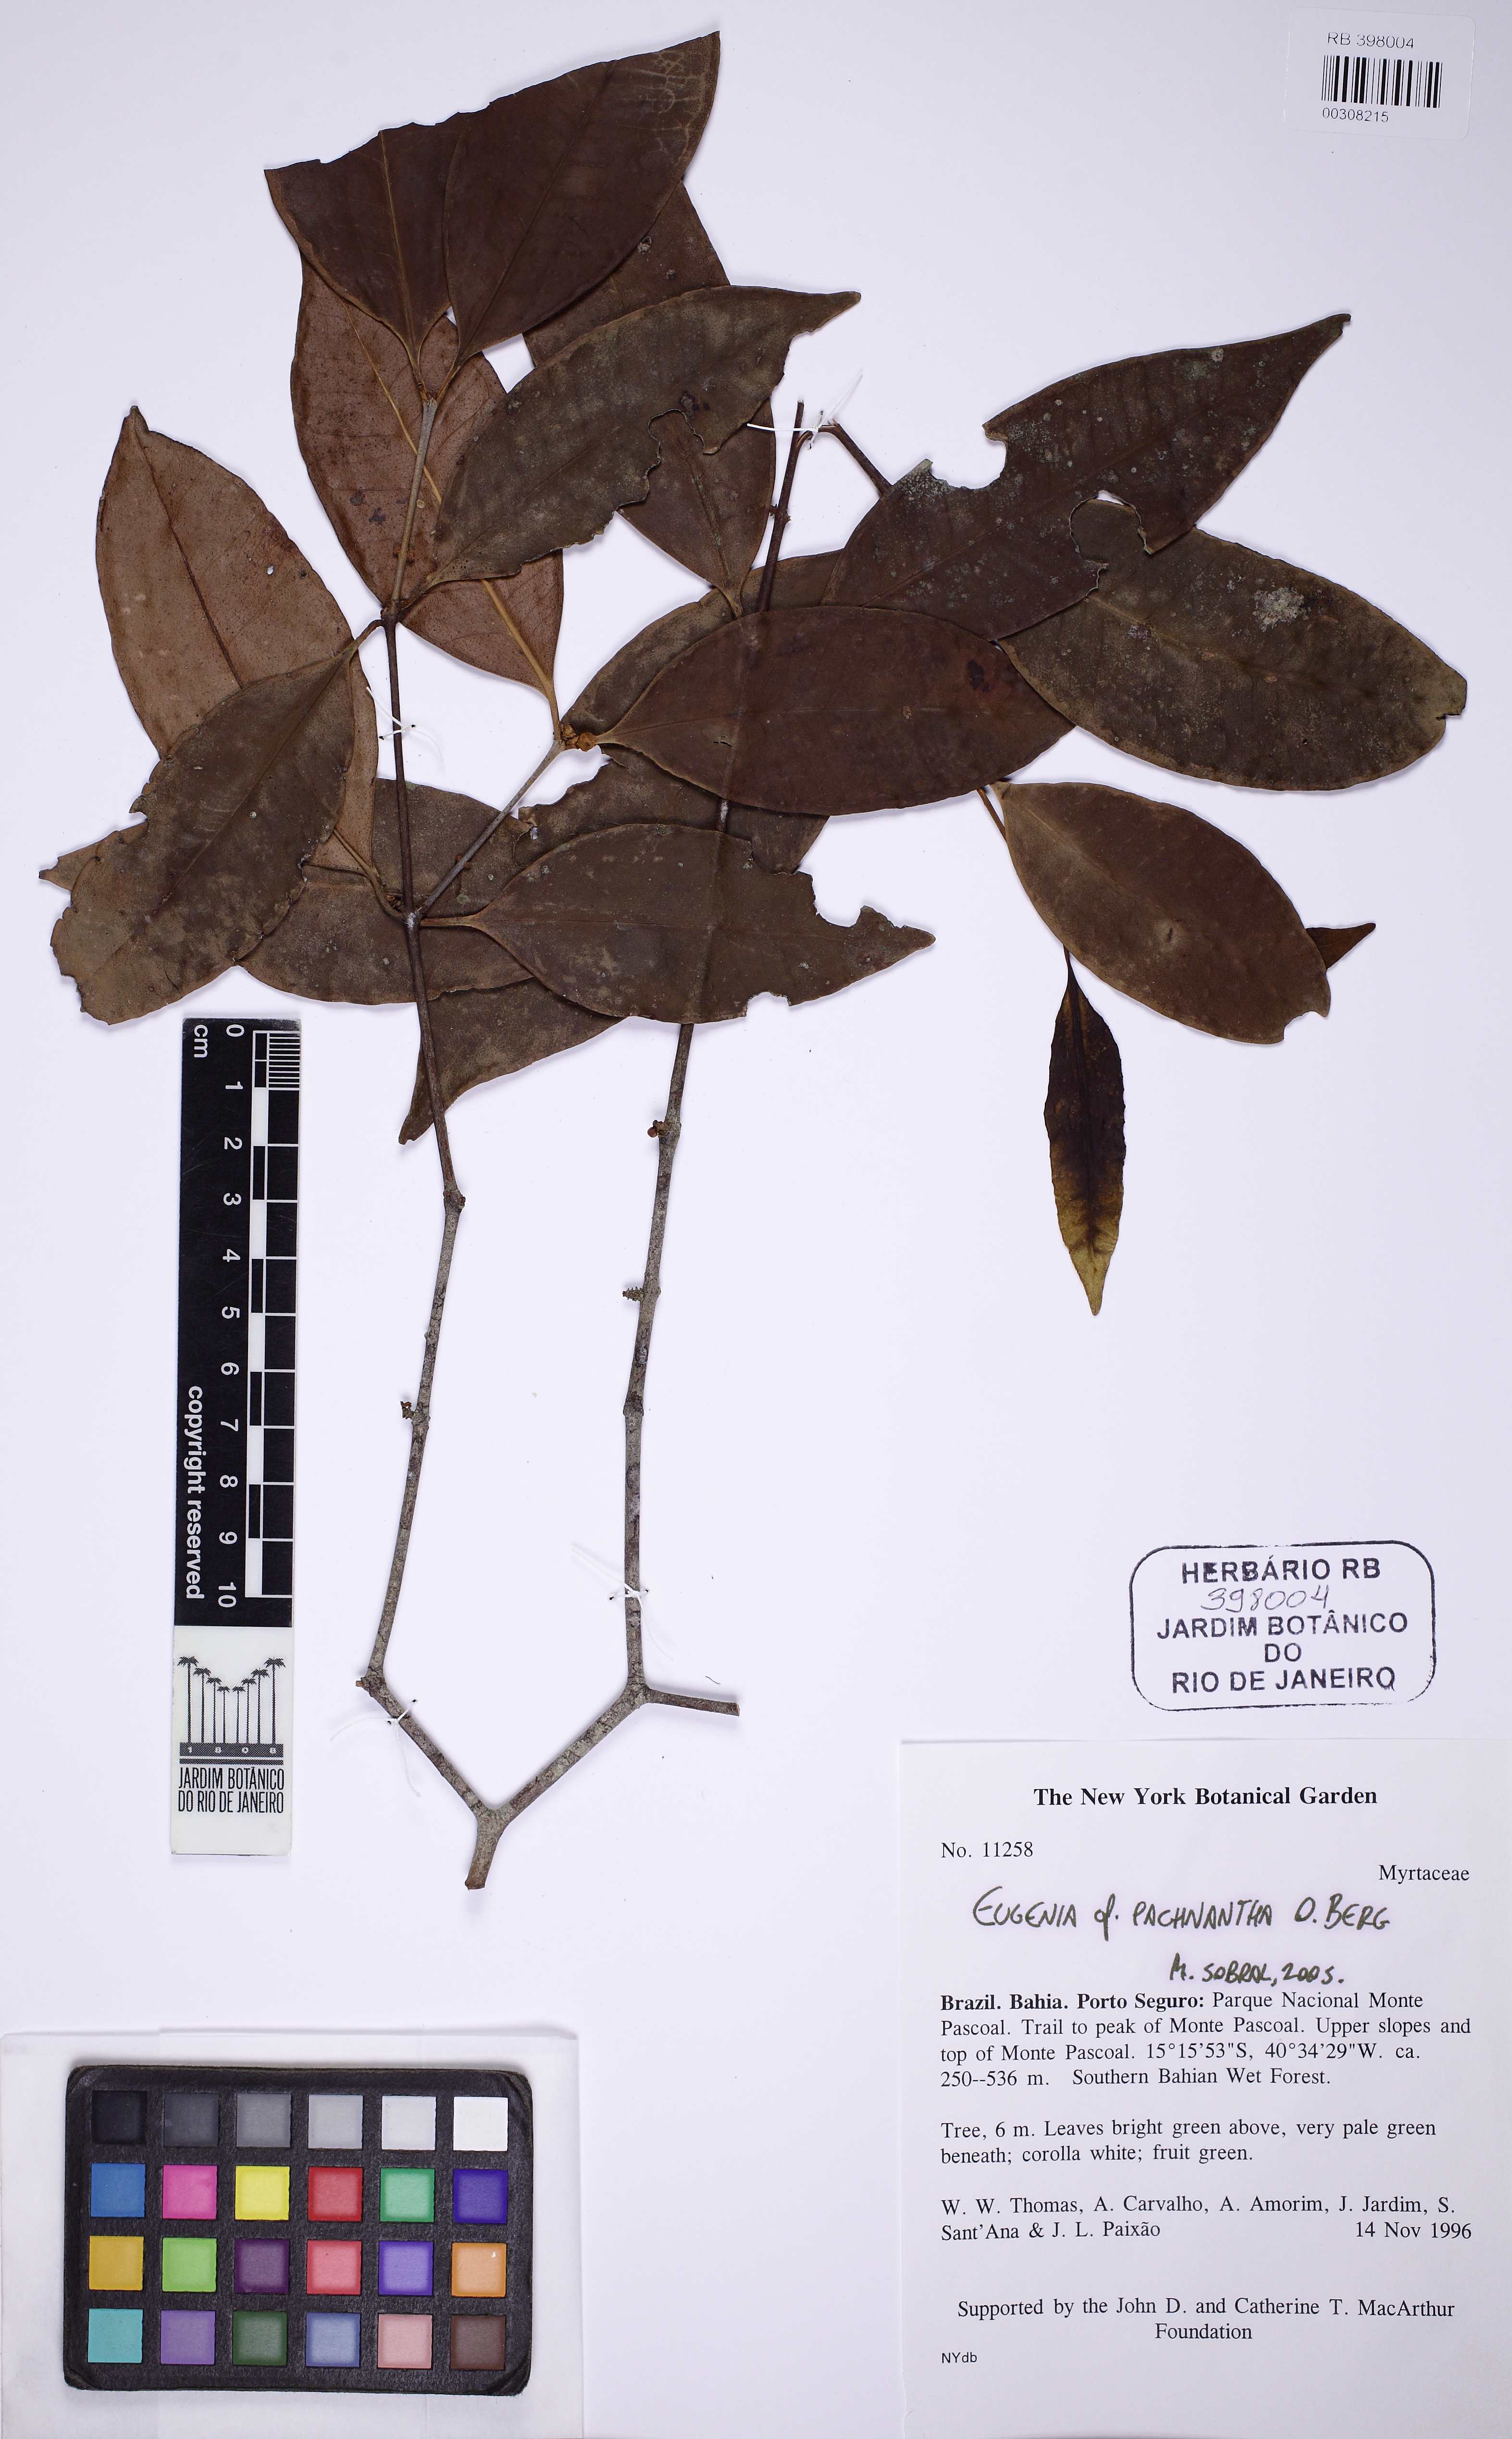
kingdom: Plantae
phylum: Tracheophyta
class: Magnoliopsida
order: Myrtales
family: Myrtaceae
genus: Eugenia
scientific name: Eugenia pachnantha
